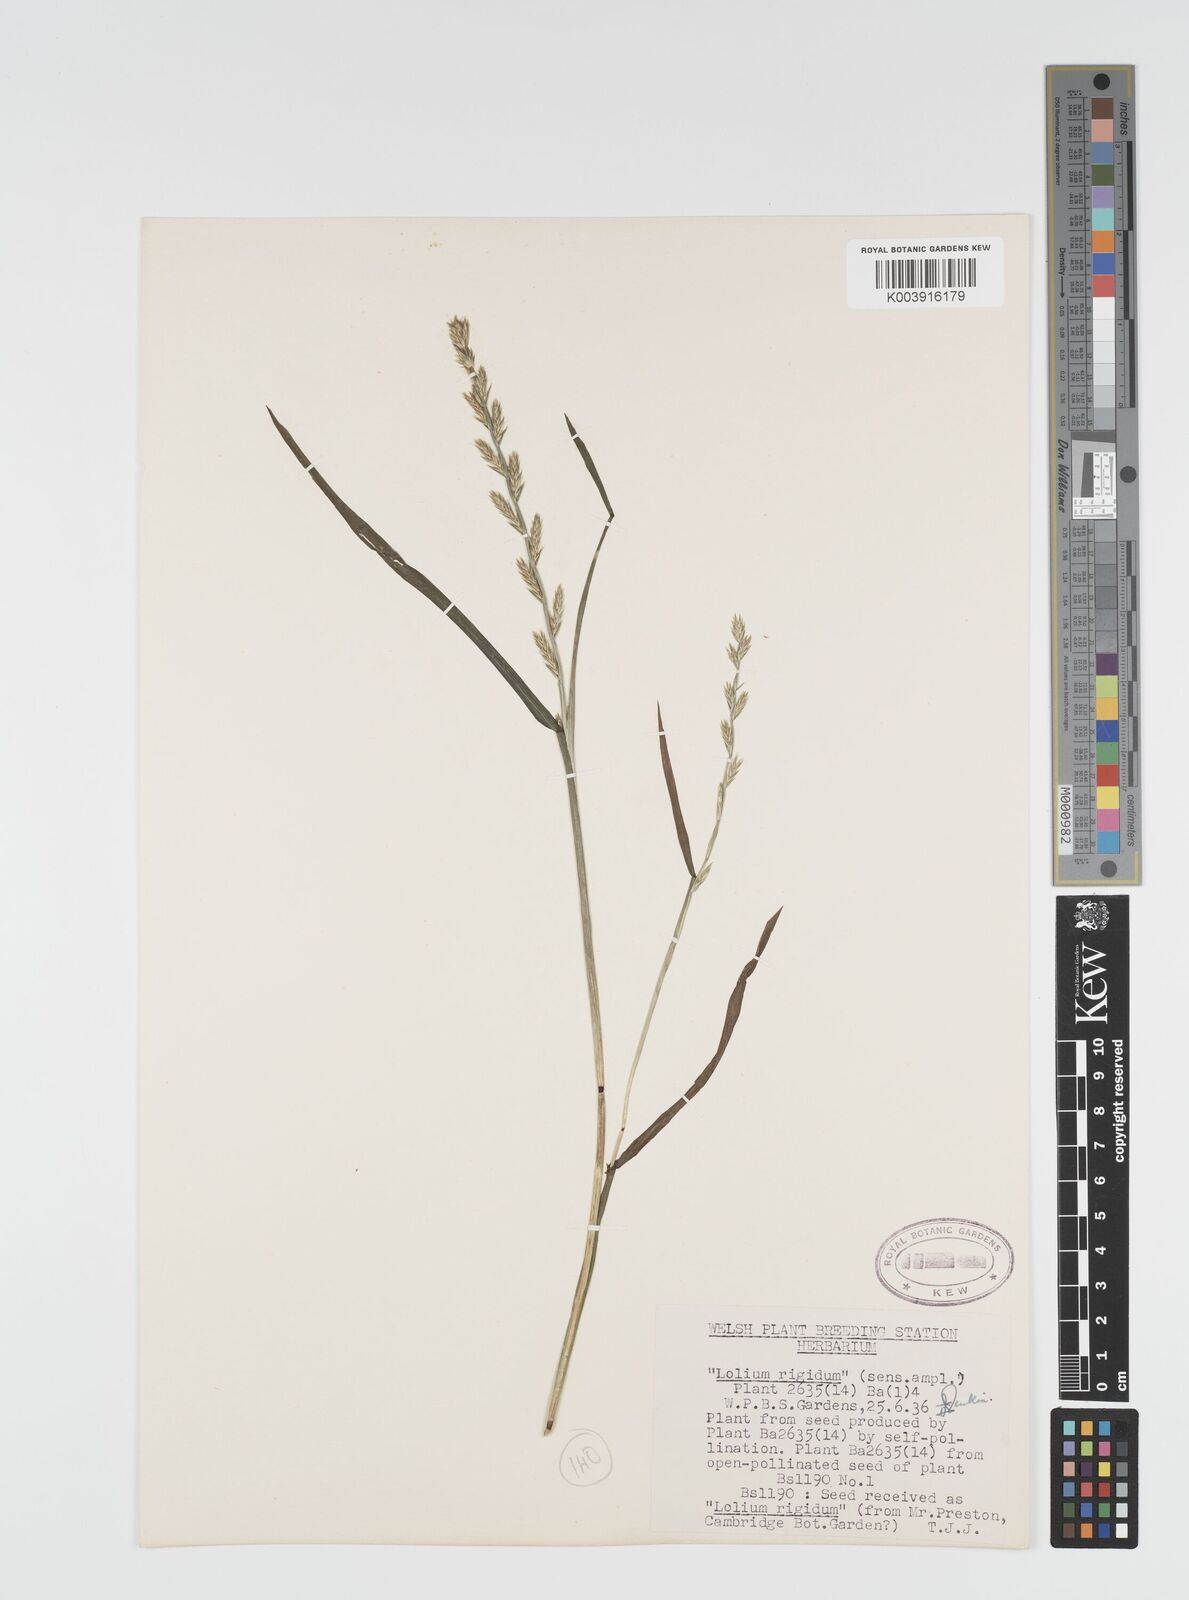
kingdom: Plantae
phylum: Tracheophyta
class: Liliopsida
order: Poales
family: Poaceae
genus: Lolium
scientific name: Lolium rigidum
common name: Wimmera ryegrass
